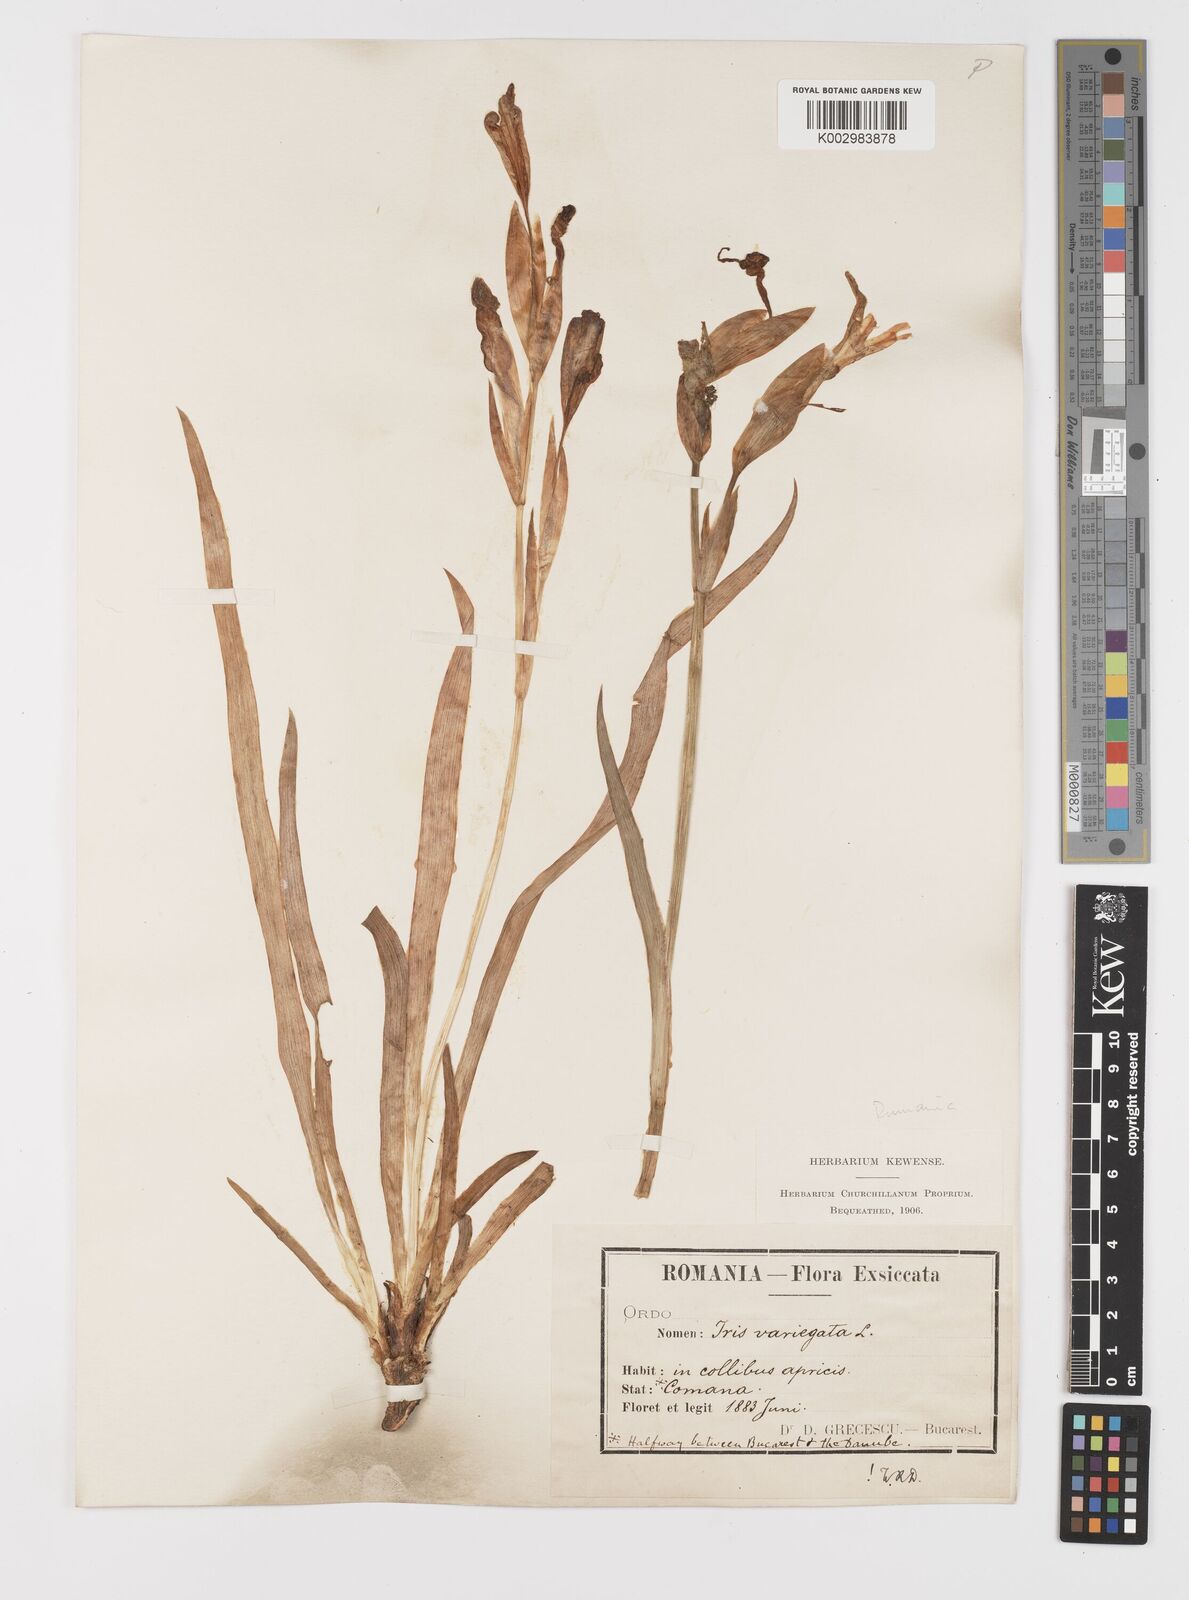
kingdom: Plantae
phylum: Tracheophyta
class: Liliopsida
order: Asparagales
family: Iridaceae
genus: Iris
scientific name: Iris variegata
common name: Hungarian iris
